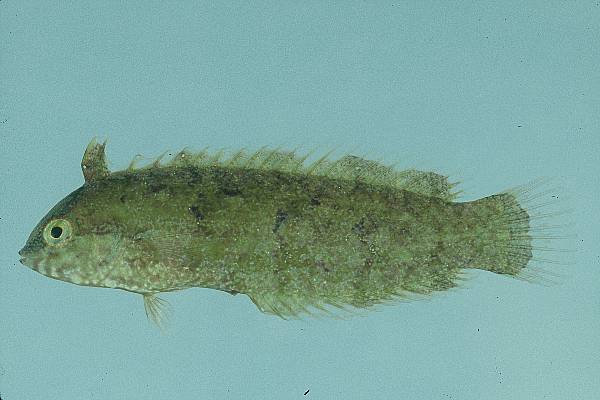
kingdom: Animalia
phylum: Chordata
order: Perciformes
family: Labridae
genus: Novaculoides
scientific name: Novaculoides macrolepidotus
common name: Seagrass wrasse
